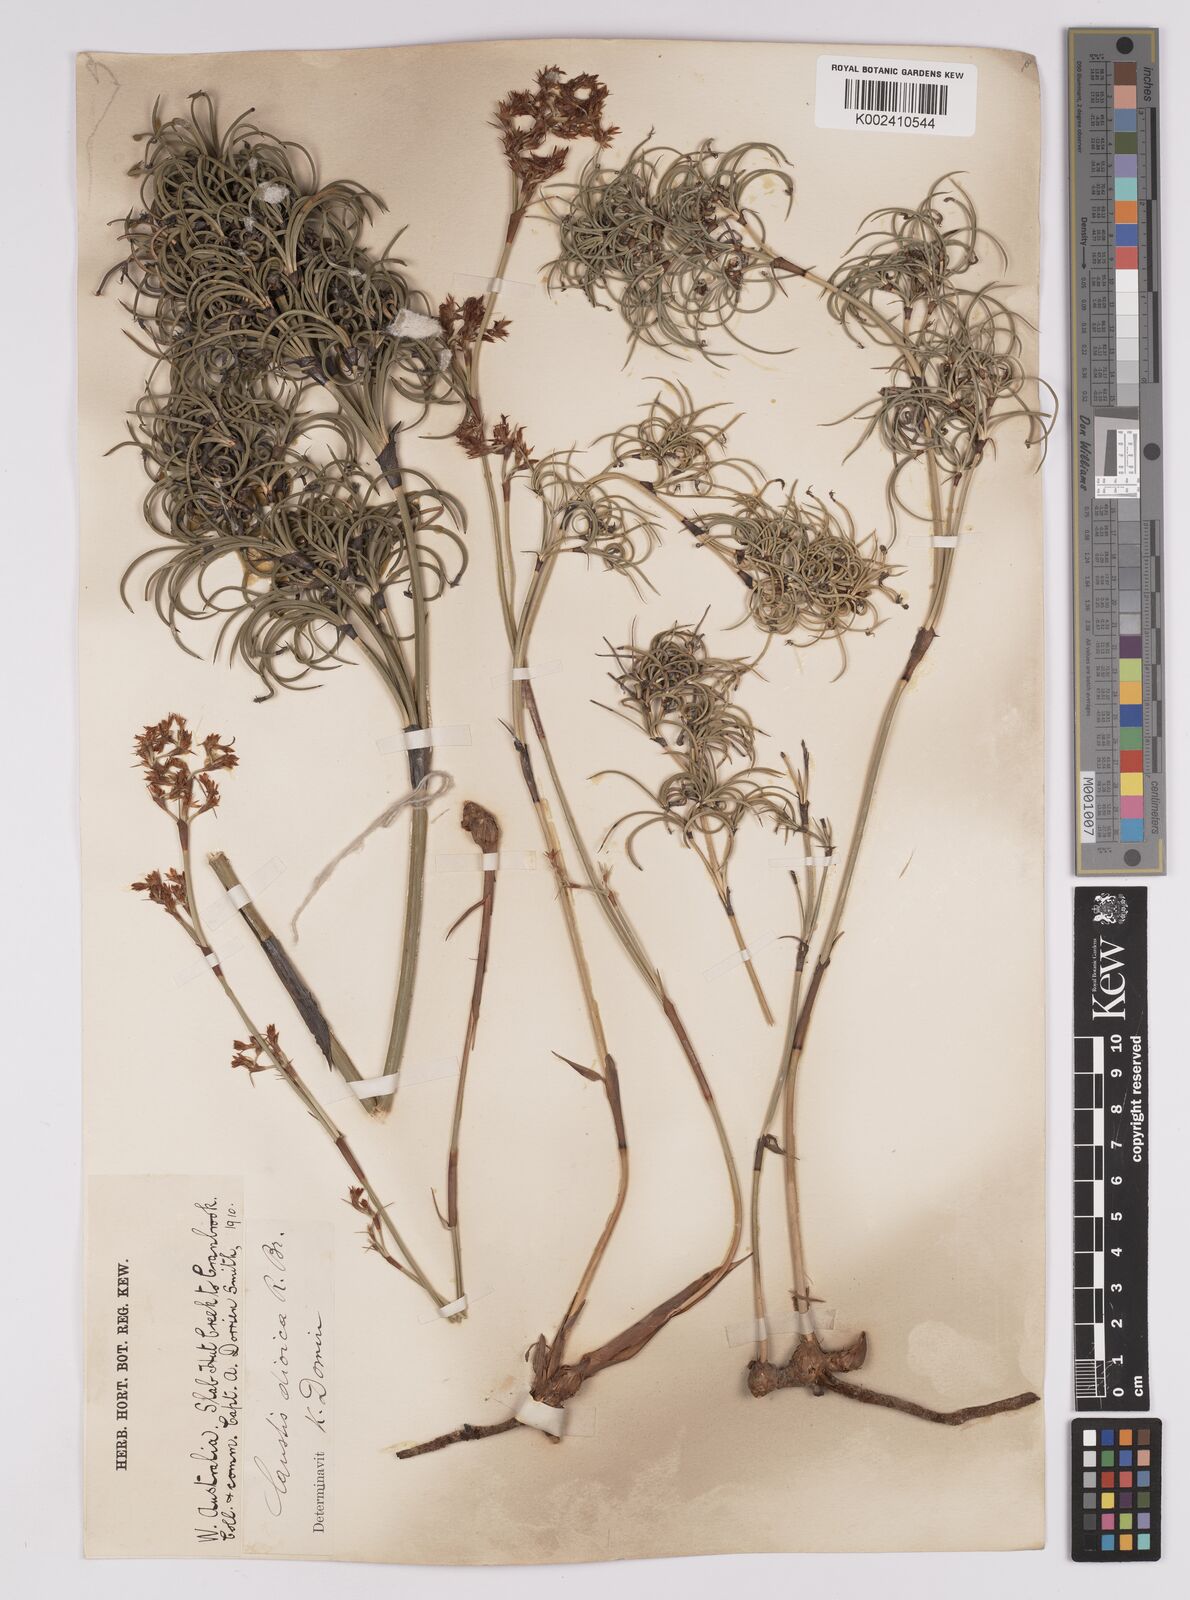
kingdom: Plantae
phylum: Tracheophyta
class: Liliopsida
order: Poales
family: Cyperaceae
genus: Caustis
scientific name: Caustis dioica
